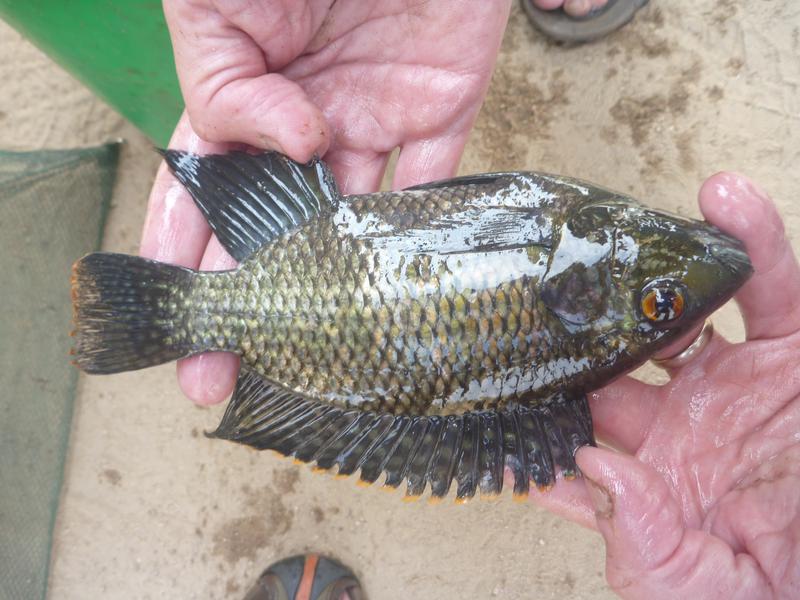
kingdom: Animalia
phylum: Chordata
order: Perciformes
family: Cichlidae
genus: Oreochromis
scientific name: Oreochromis leucostictus
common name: Blue spotted tilapia
